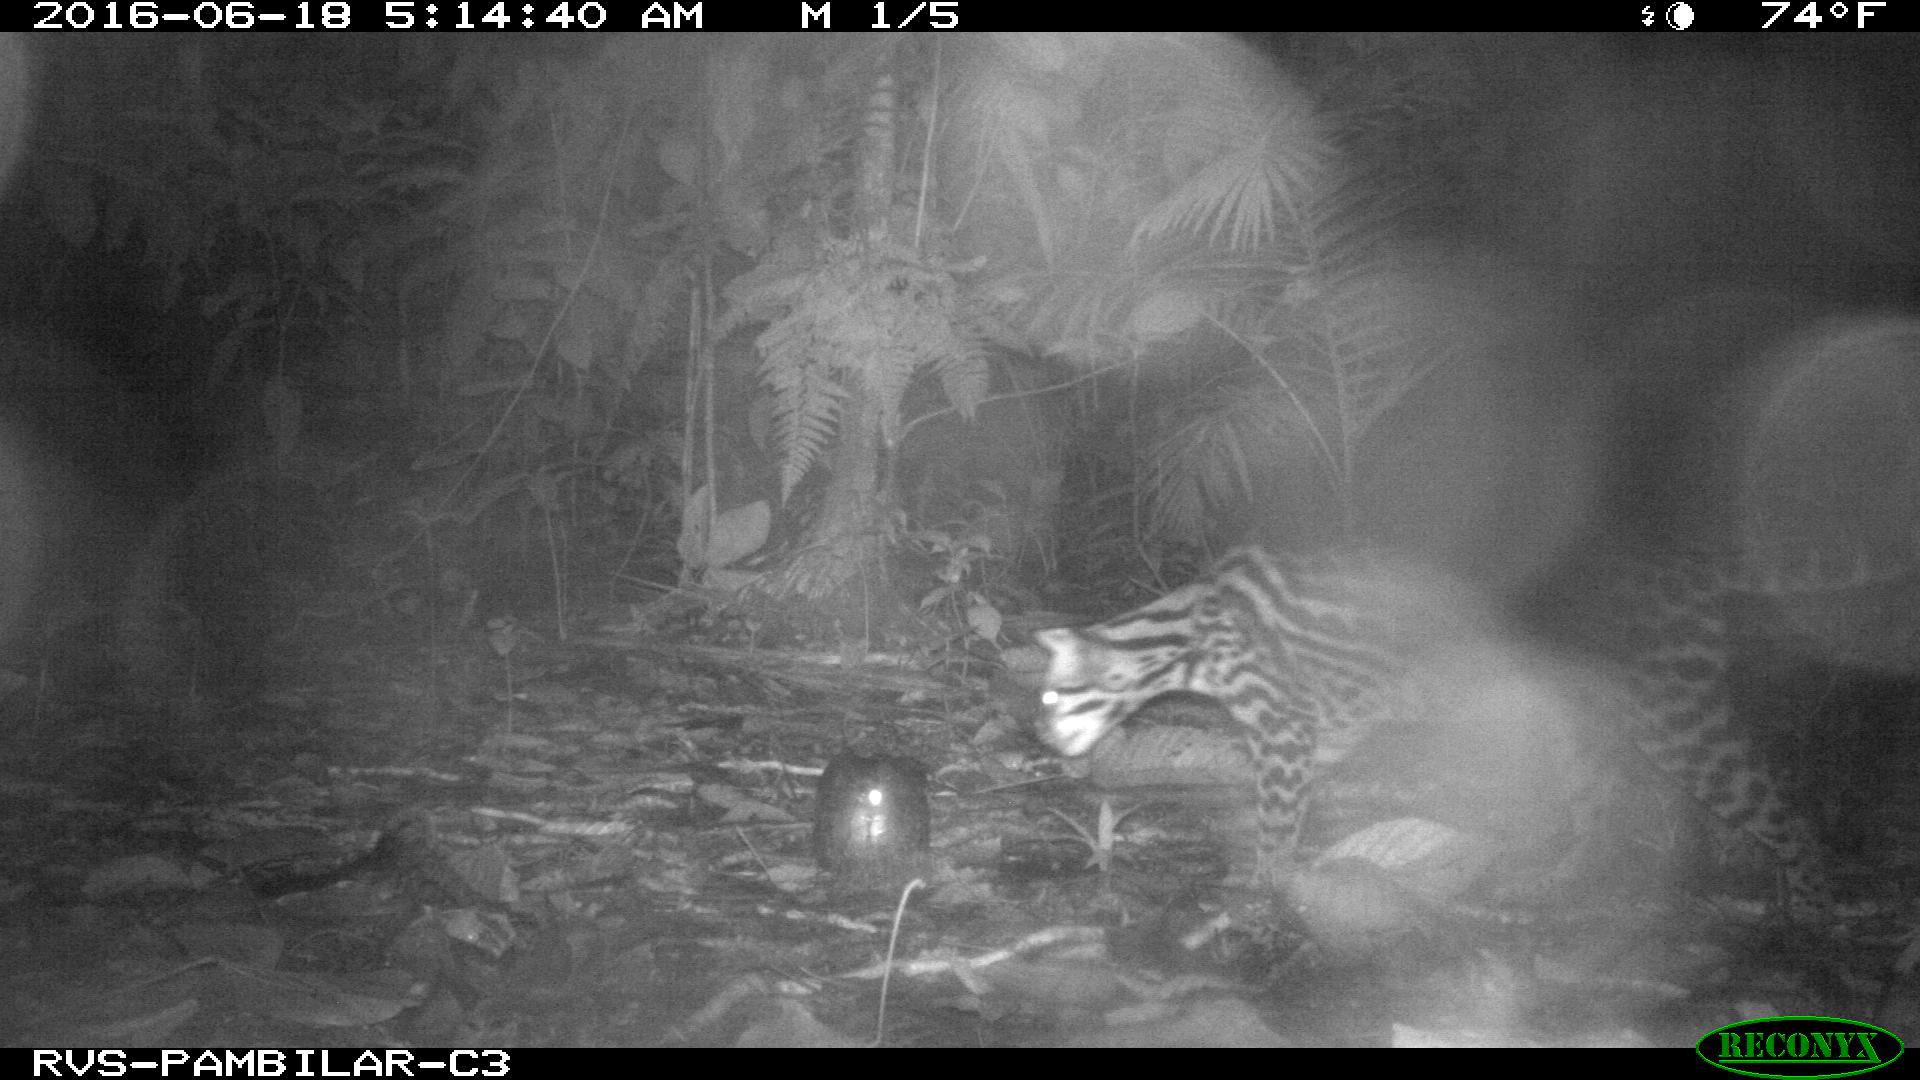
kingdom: Animalia
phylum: Chordata
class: Mammalia
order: Carnivora
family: Felidae
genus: Leopardus
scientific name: Leopardus pardalis
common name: Ocelot
